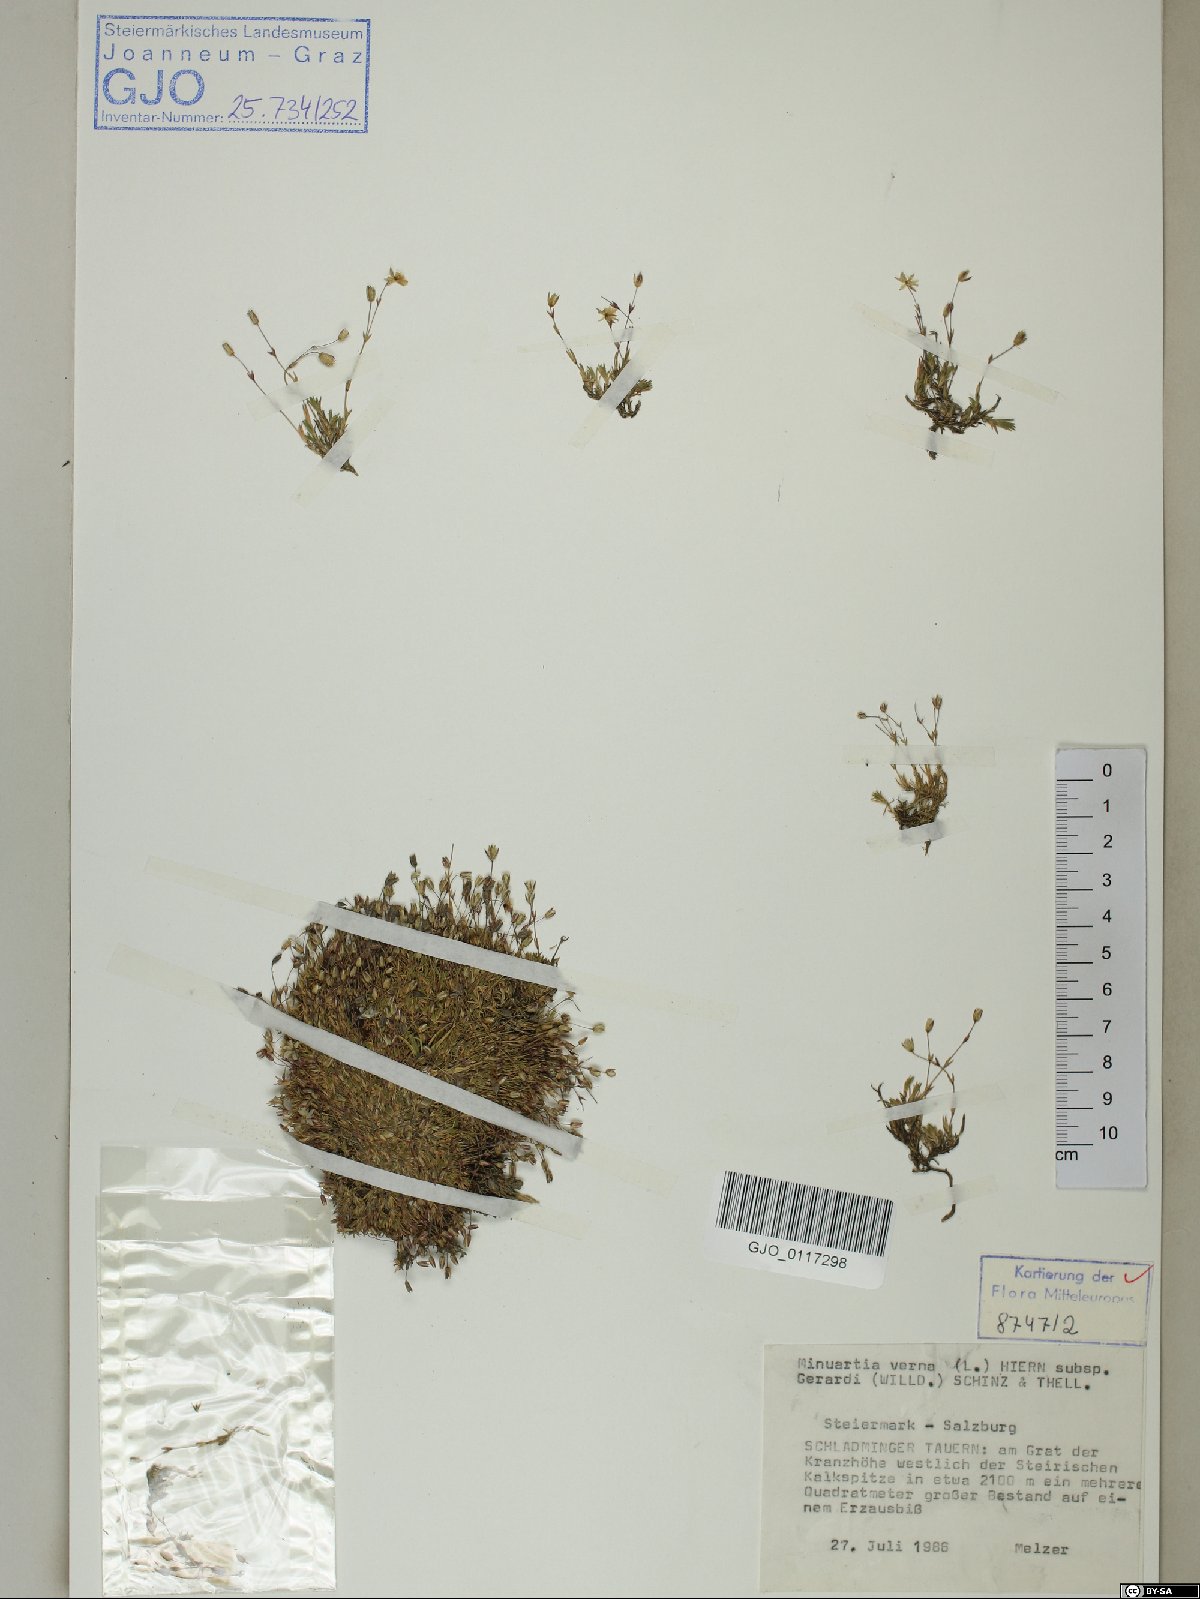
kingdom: Plantae
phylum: Tracheophyta
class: Magnoliopsida
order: Caryophyllales
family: Caryophyllaceae
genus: Sabulina
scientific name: Sabulina verna
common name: Spring sandwort
